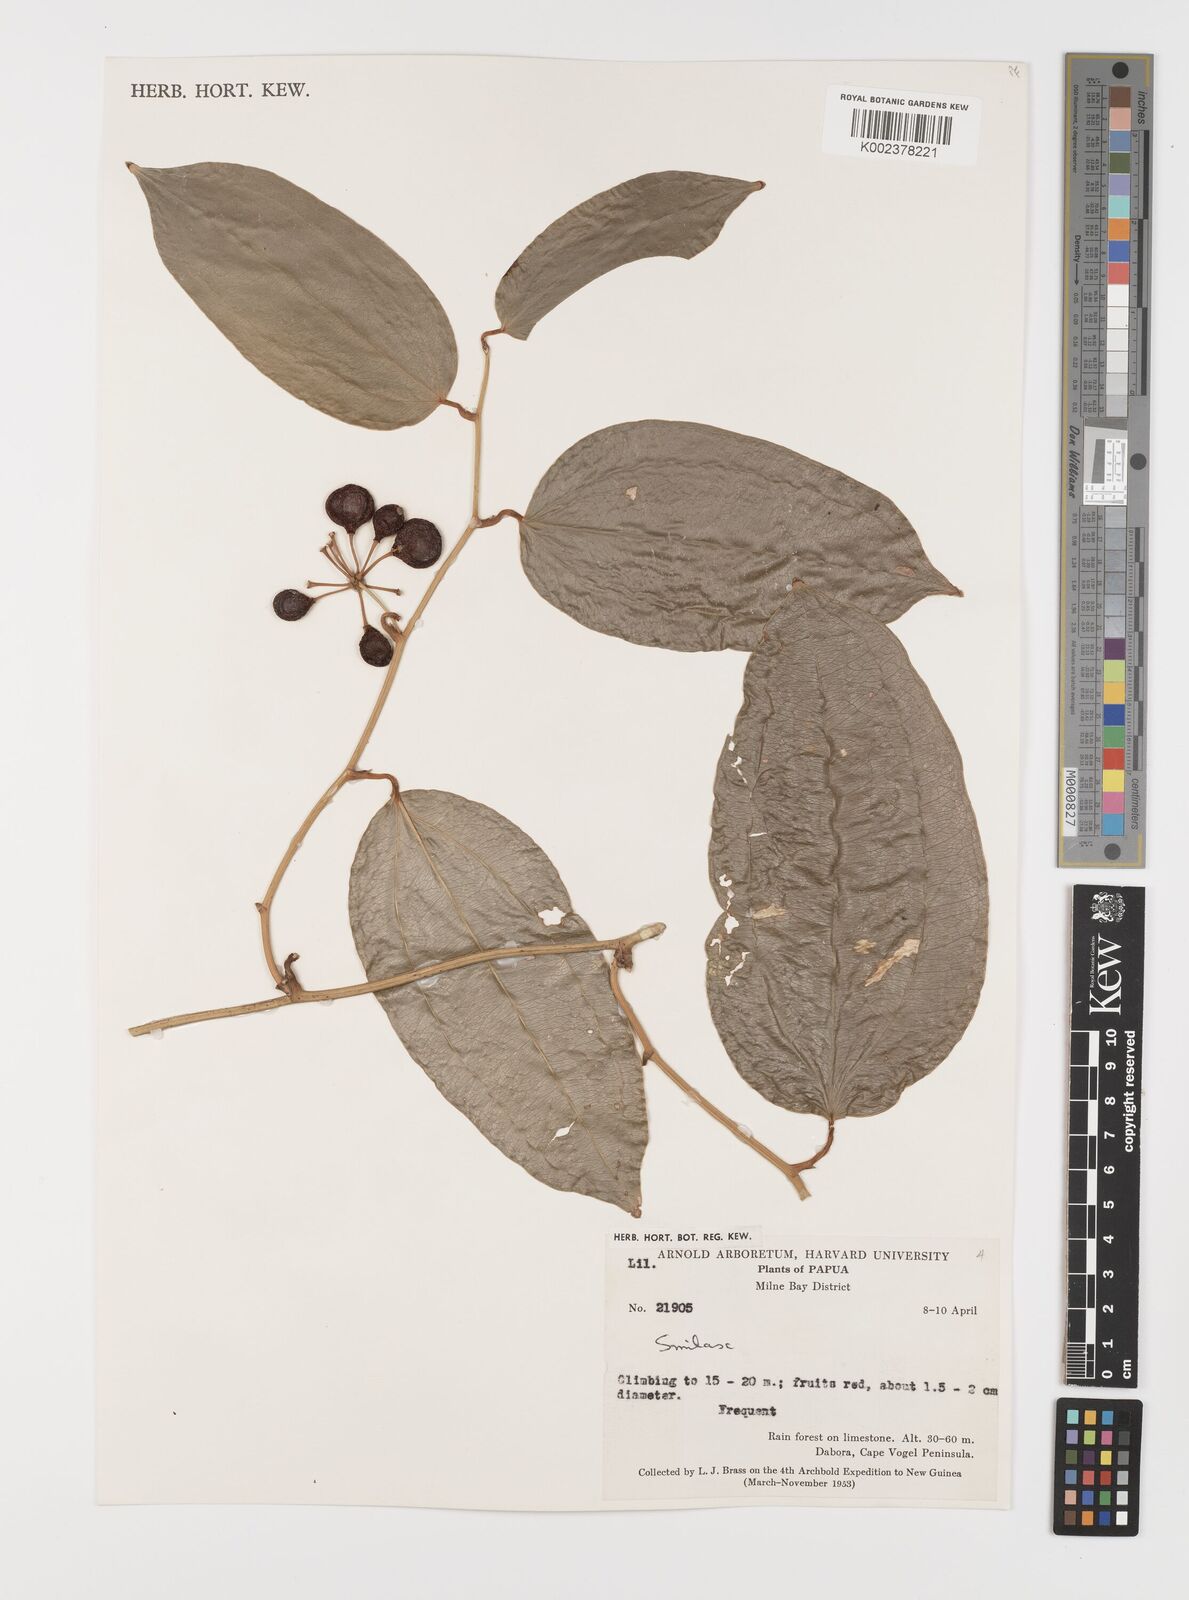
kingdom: Plantae
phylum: Tracheophyta
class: Liliopsida
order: Liliales
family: Smilacaceae
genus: Smilax
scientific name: Smilax
